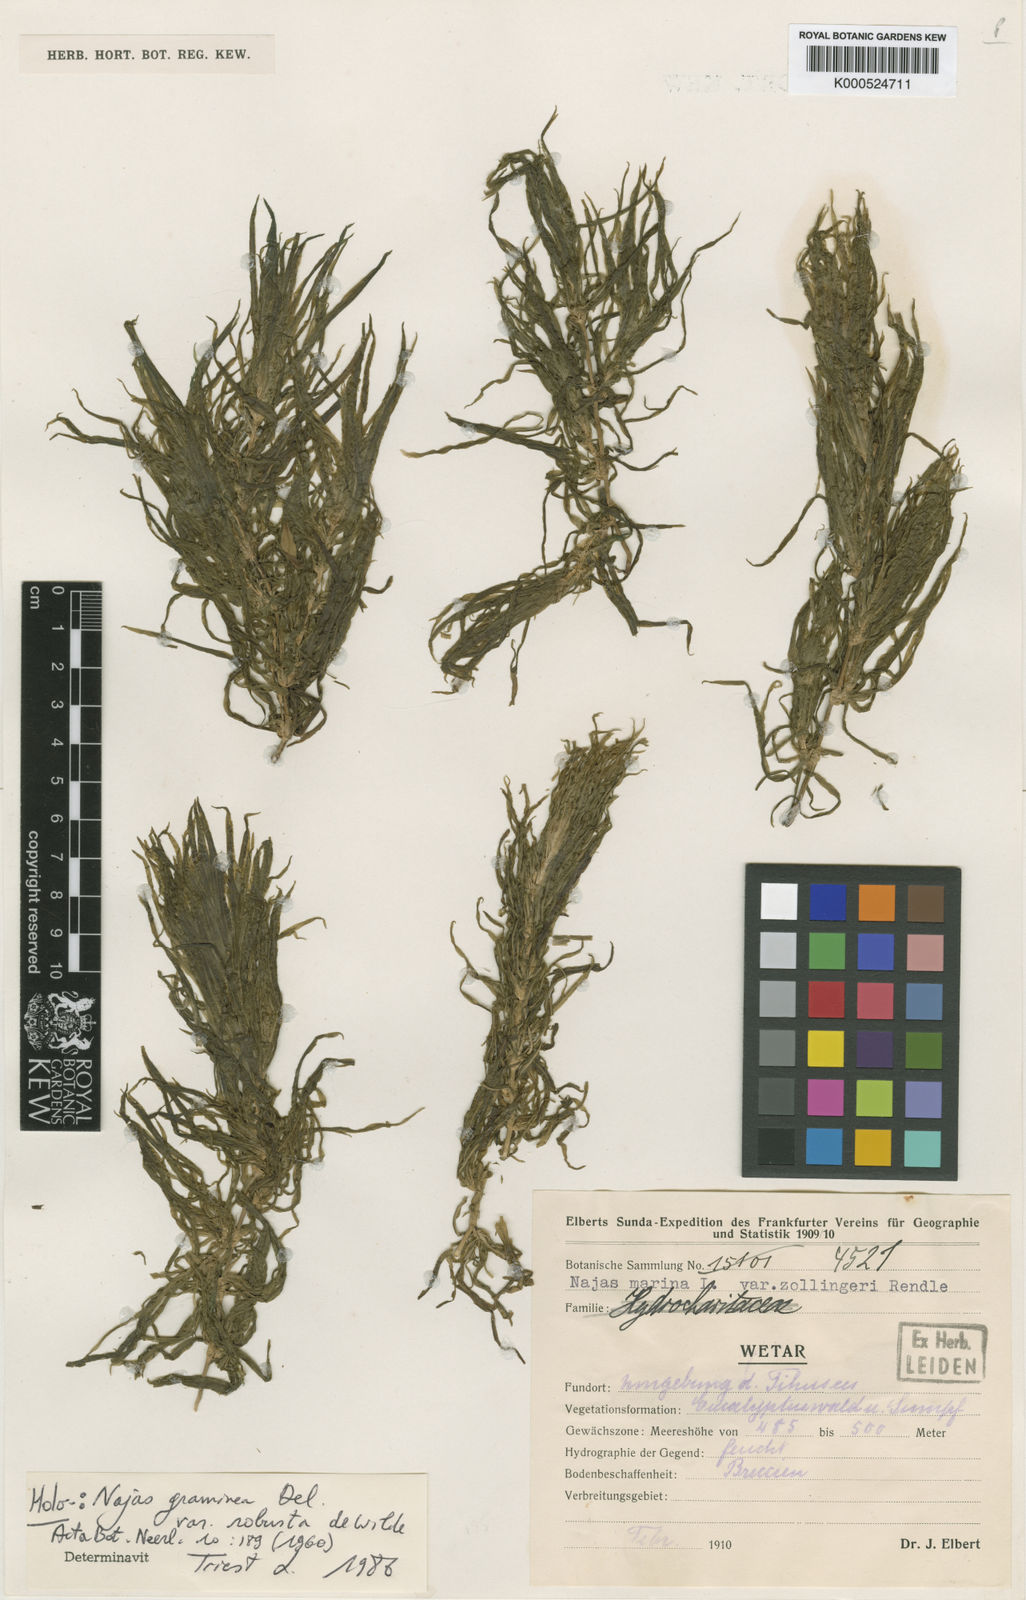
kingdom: Plantae
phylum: Tracheophyta
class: Liliopsida
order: Alismatales
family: Hydrocharitaceae
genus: Najas
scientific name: Najas graminea
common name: Ricefield waternymph
